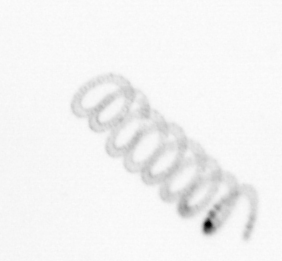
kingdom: Chromista
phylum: Ochrophyta
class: Bacillariophyceae
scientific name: Bacillariophyceae
